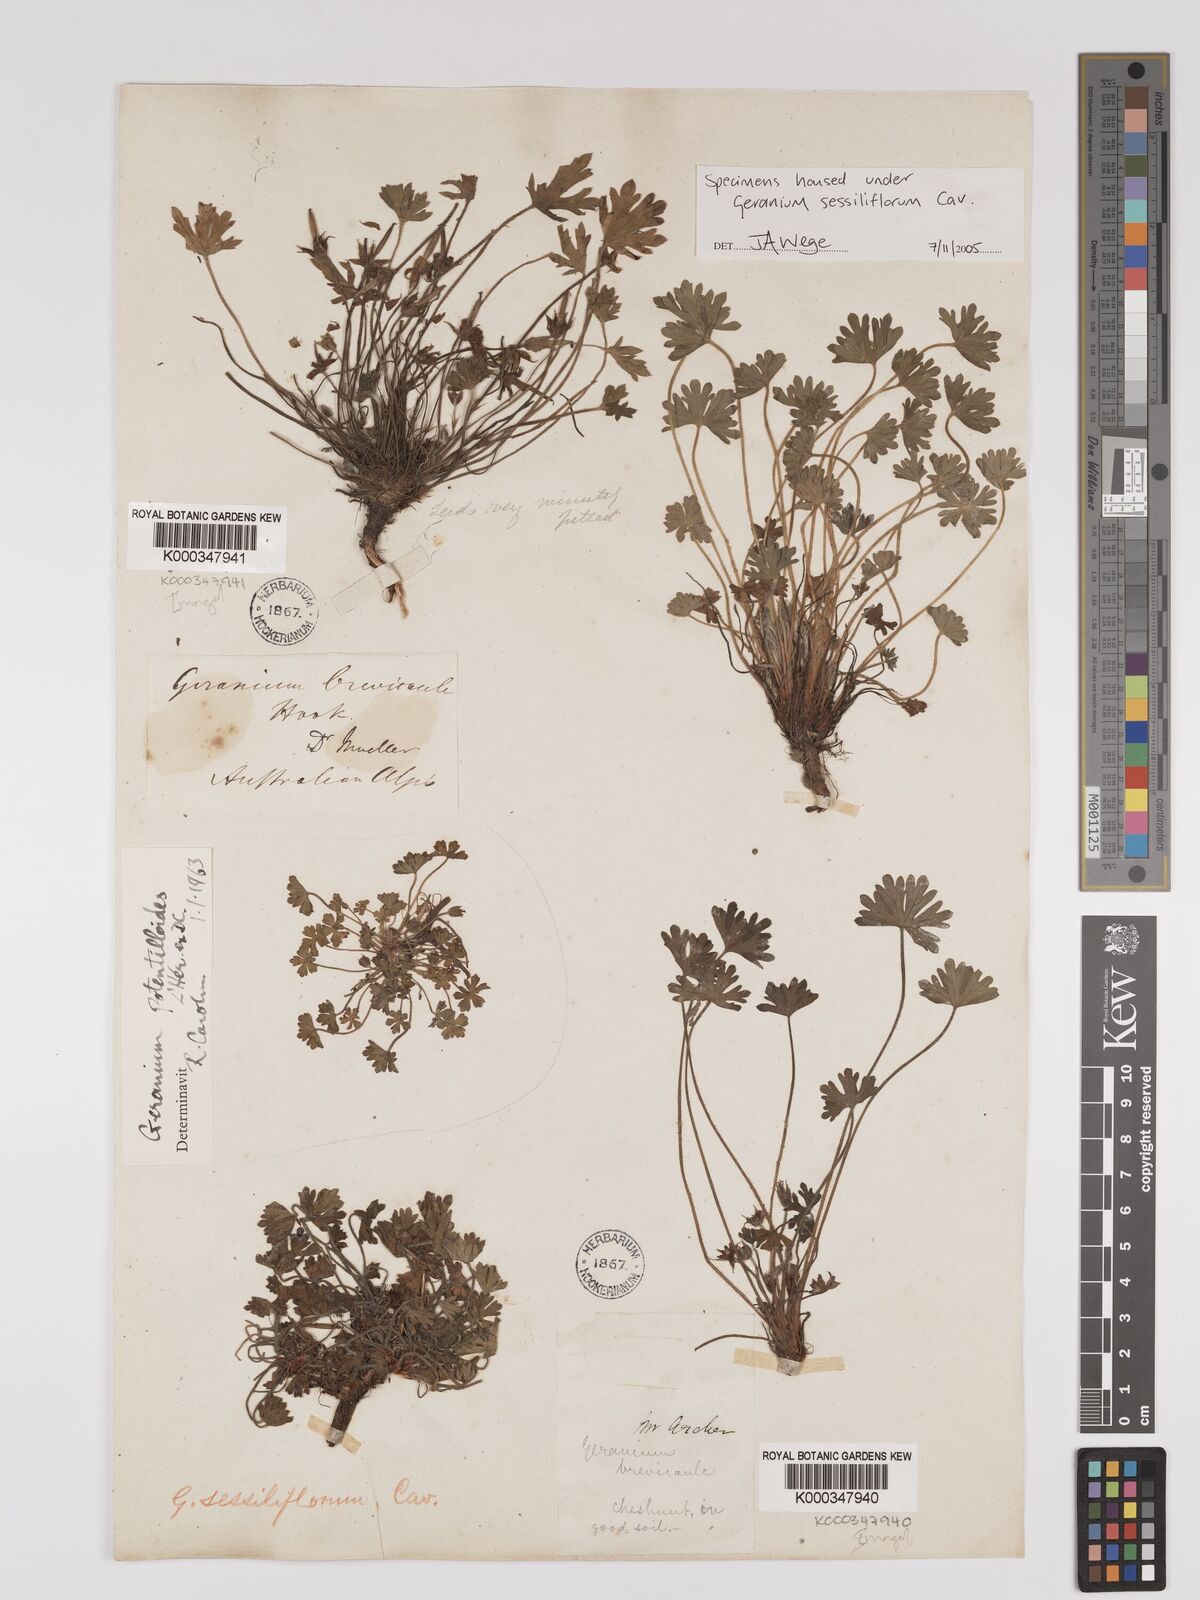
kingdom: Plantae
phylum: Tracheophyta
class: Magnoliopsida
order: Geraniales
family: Geraniaceae
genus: Geranium
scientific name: Geranium sessiliflorum
